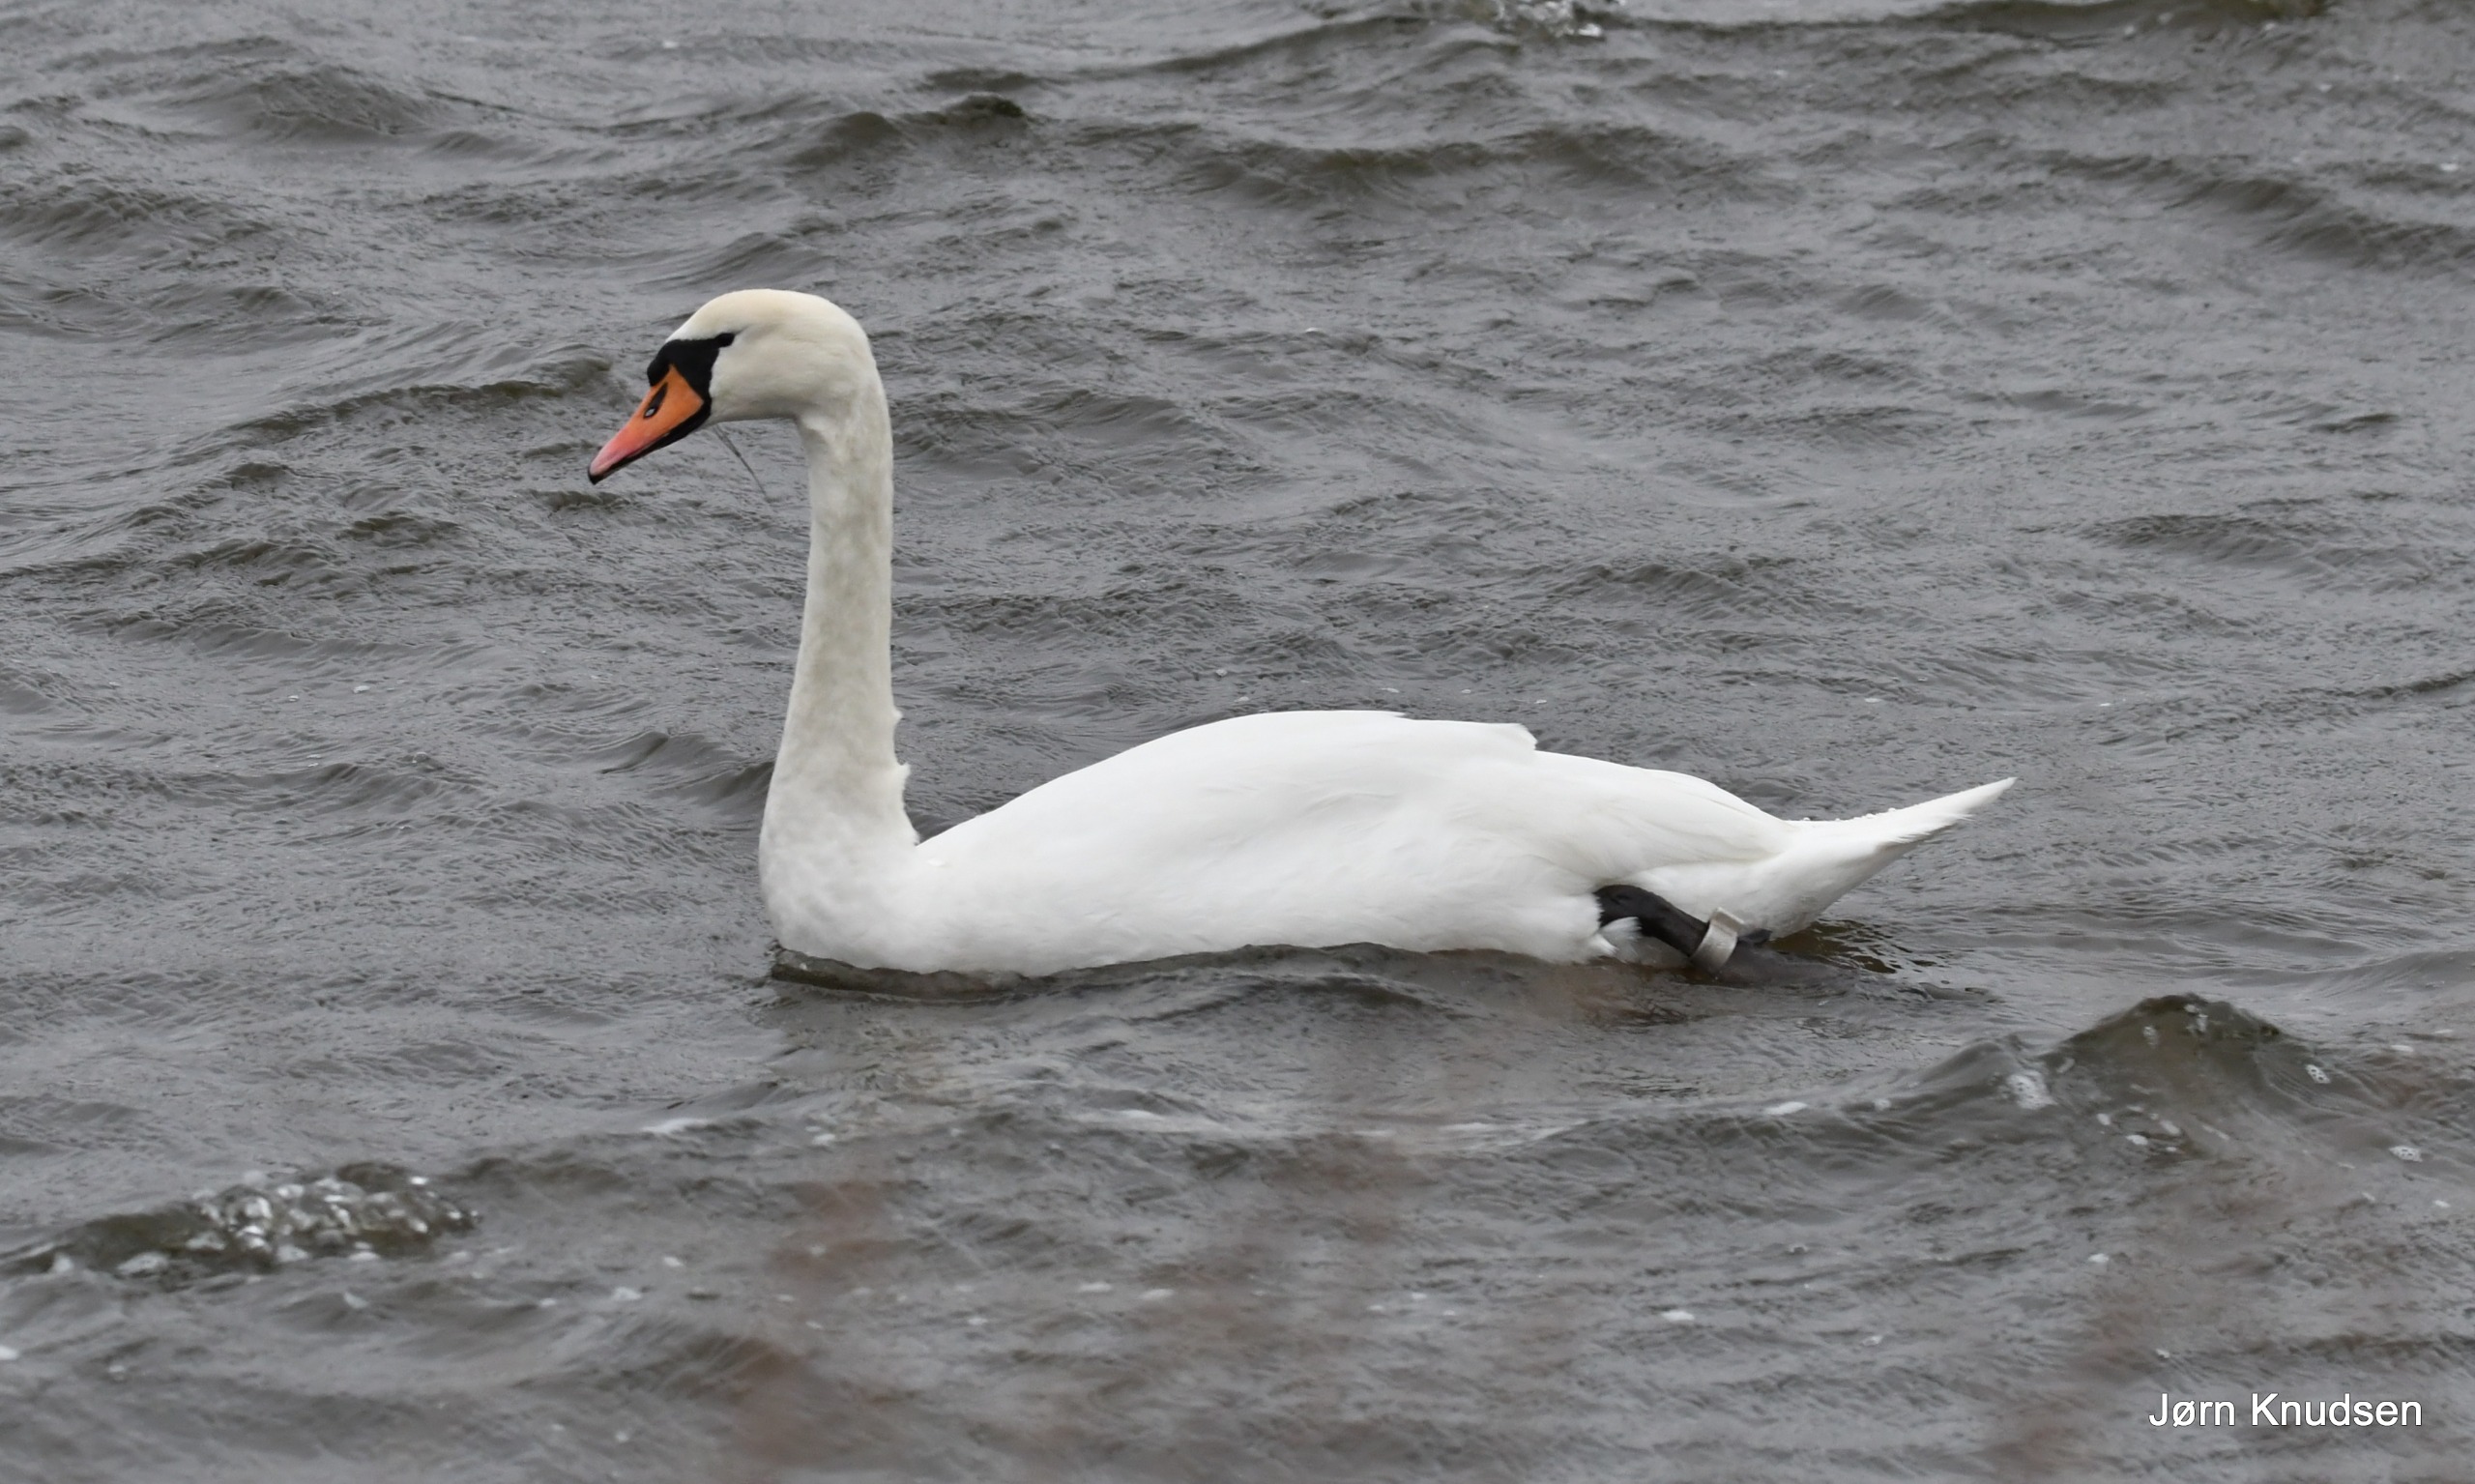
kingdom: Animalia
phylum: Chordata
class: Aves
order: Anseriformes
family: Anatidae
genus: Cygnus
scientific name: Cygnus olor
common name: Knopsvane
